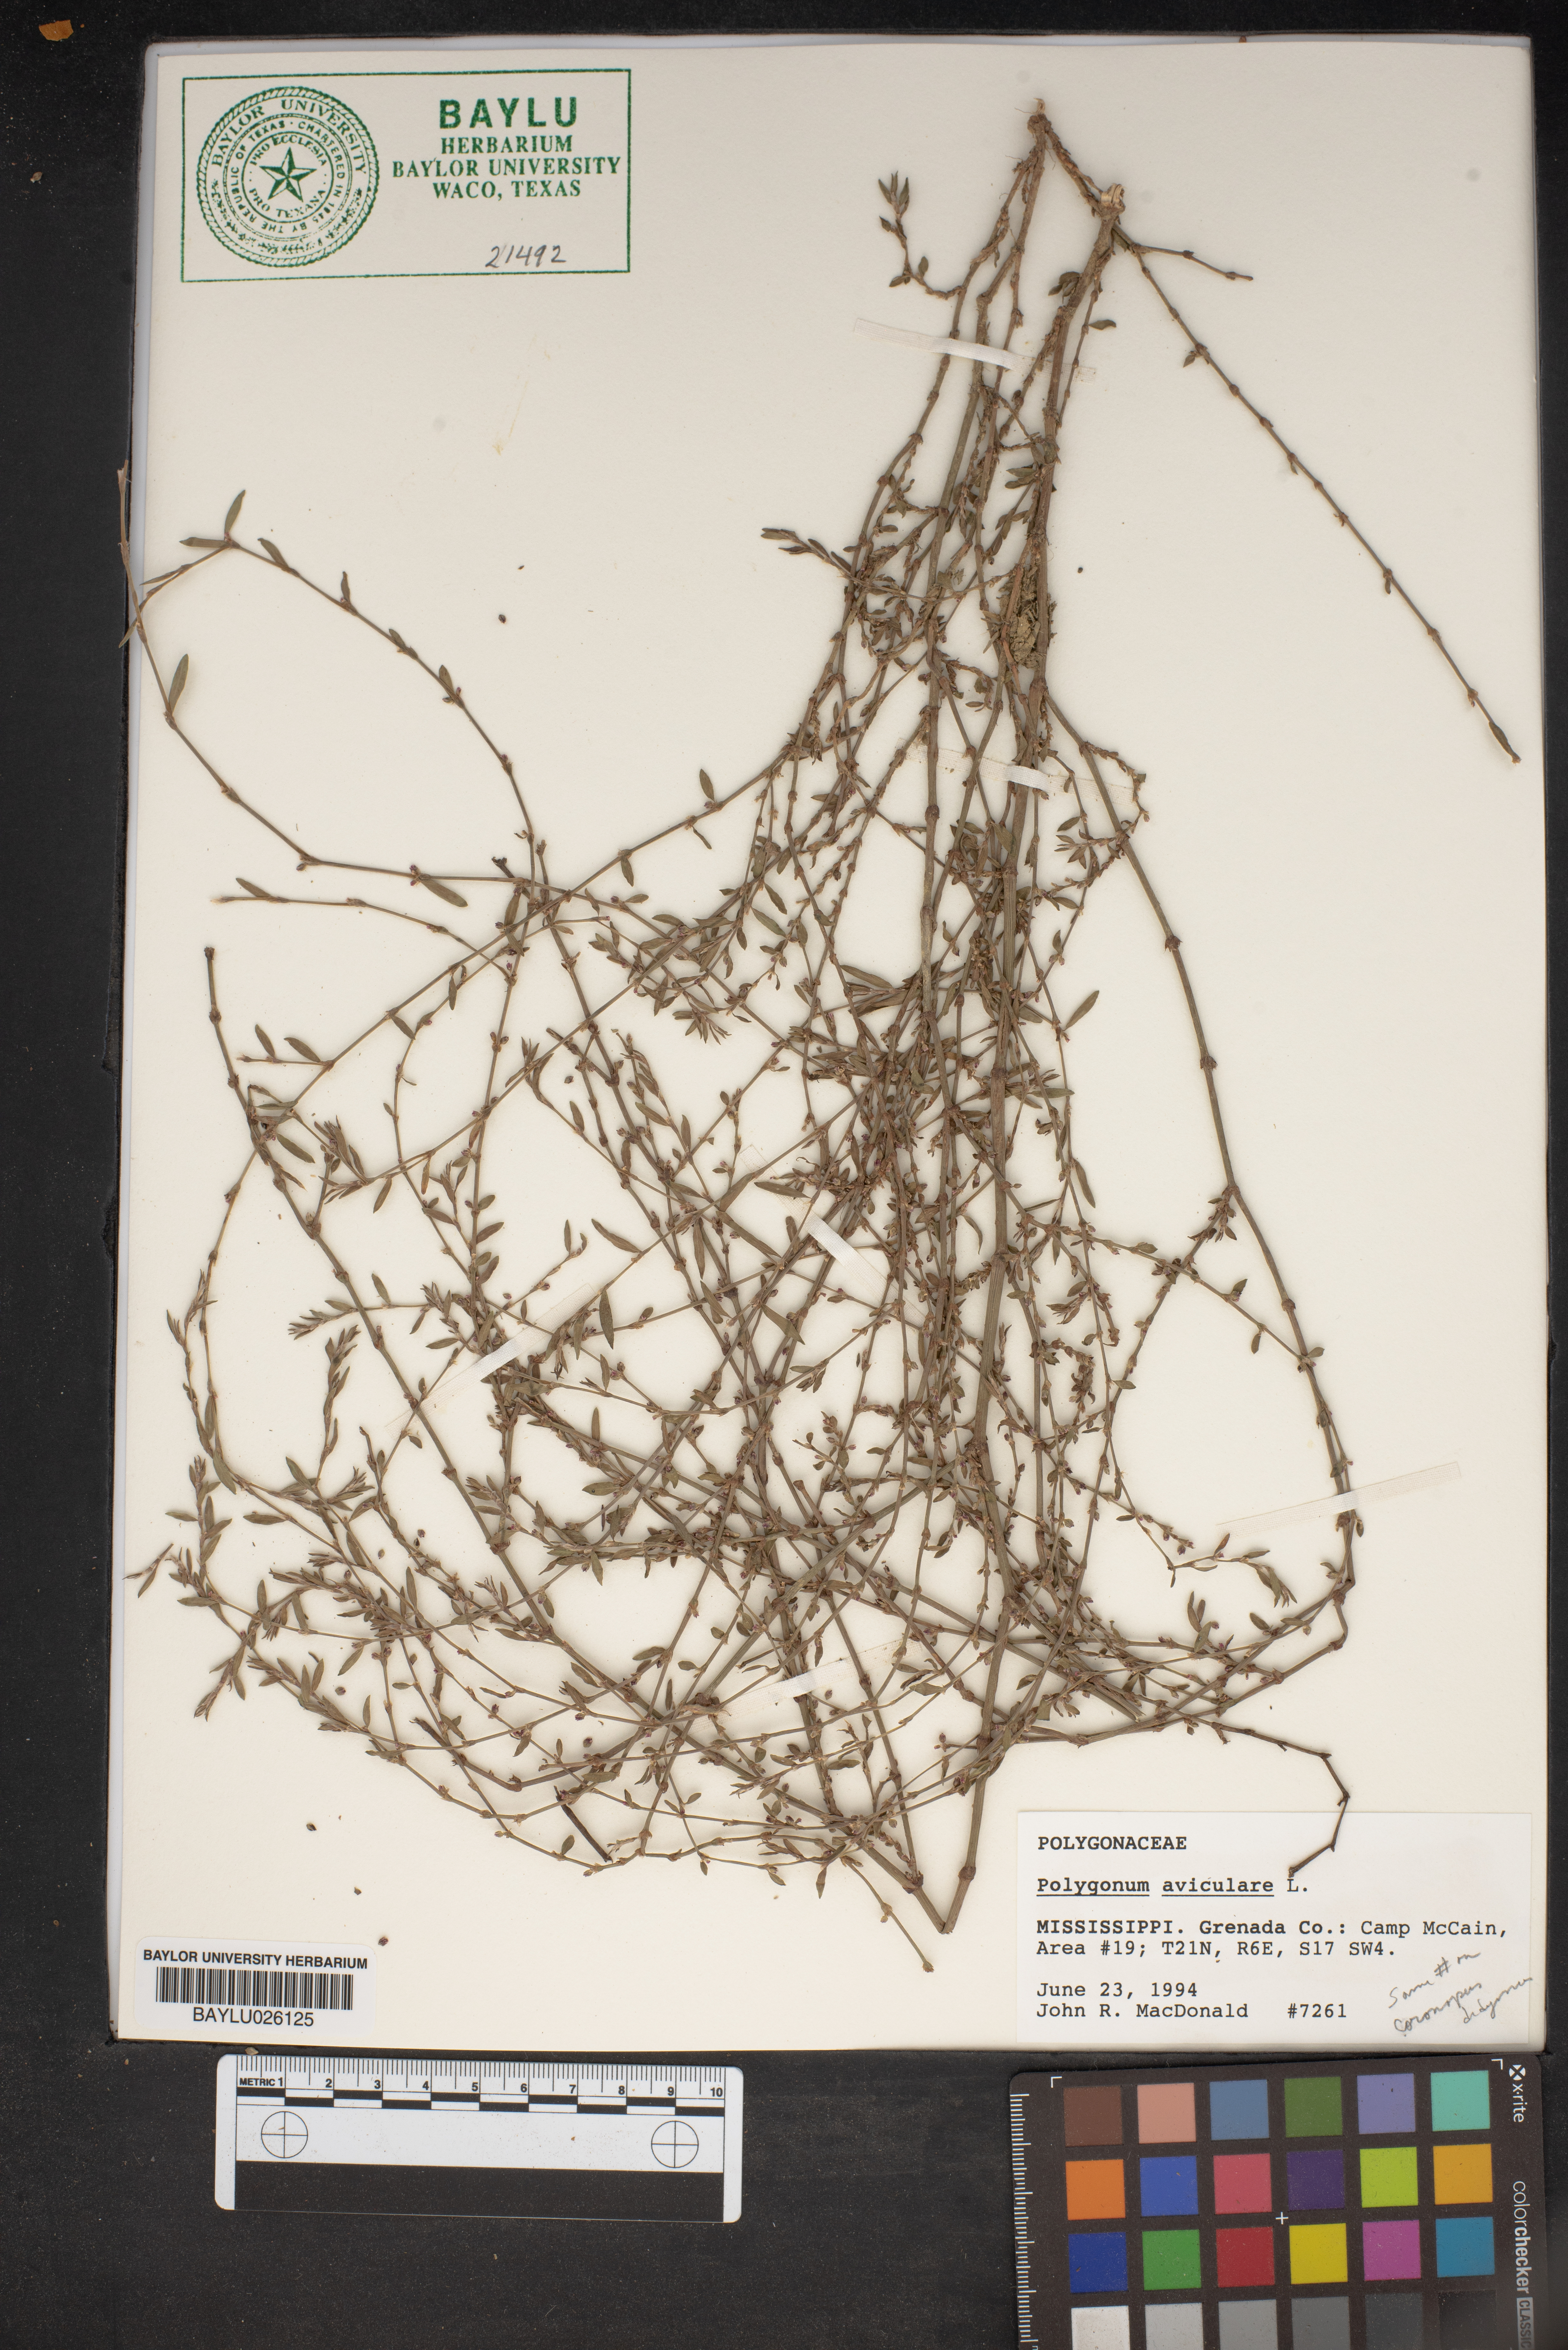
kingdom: Plantae
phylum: Tracheophyta
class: Magnoliopsida
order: Caryophyllales
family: Polygonaceae
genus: Polygonum
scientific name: Polygonum aviculare
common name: Prostrate knotweed
